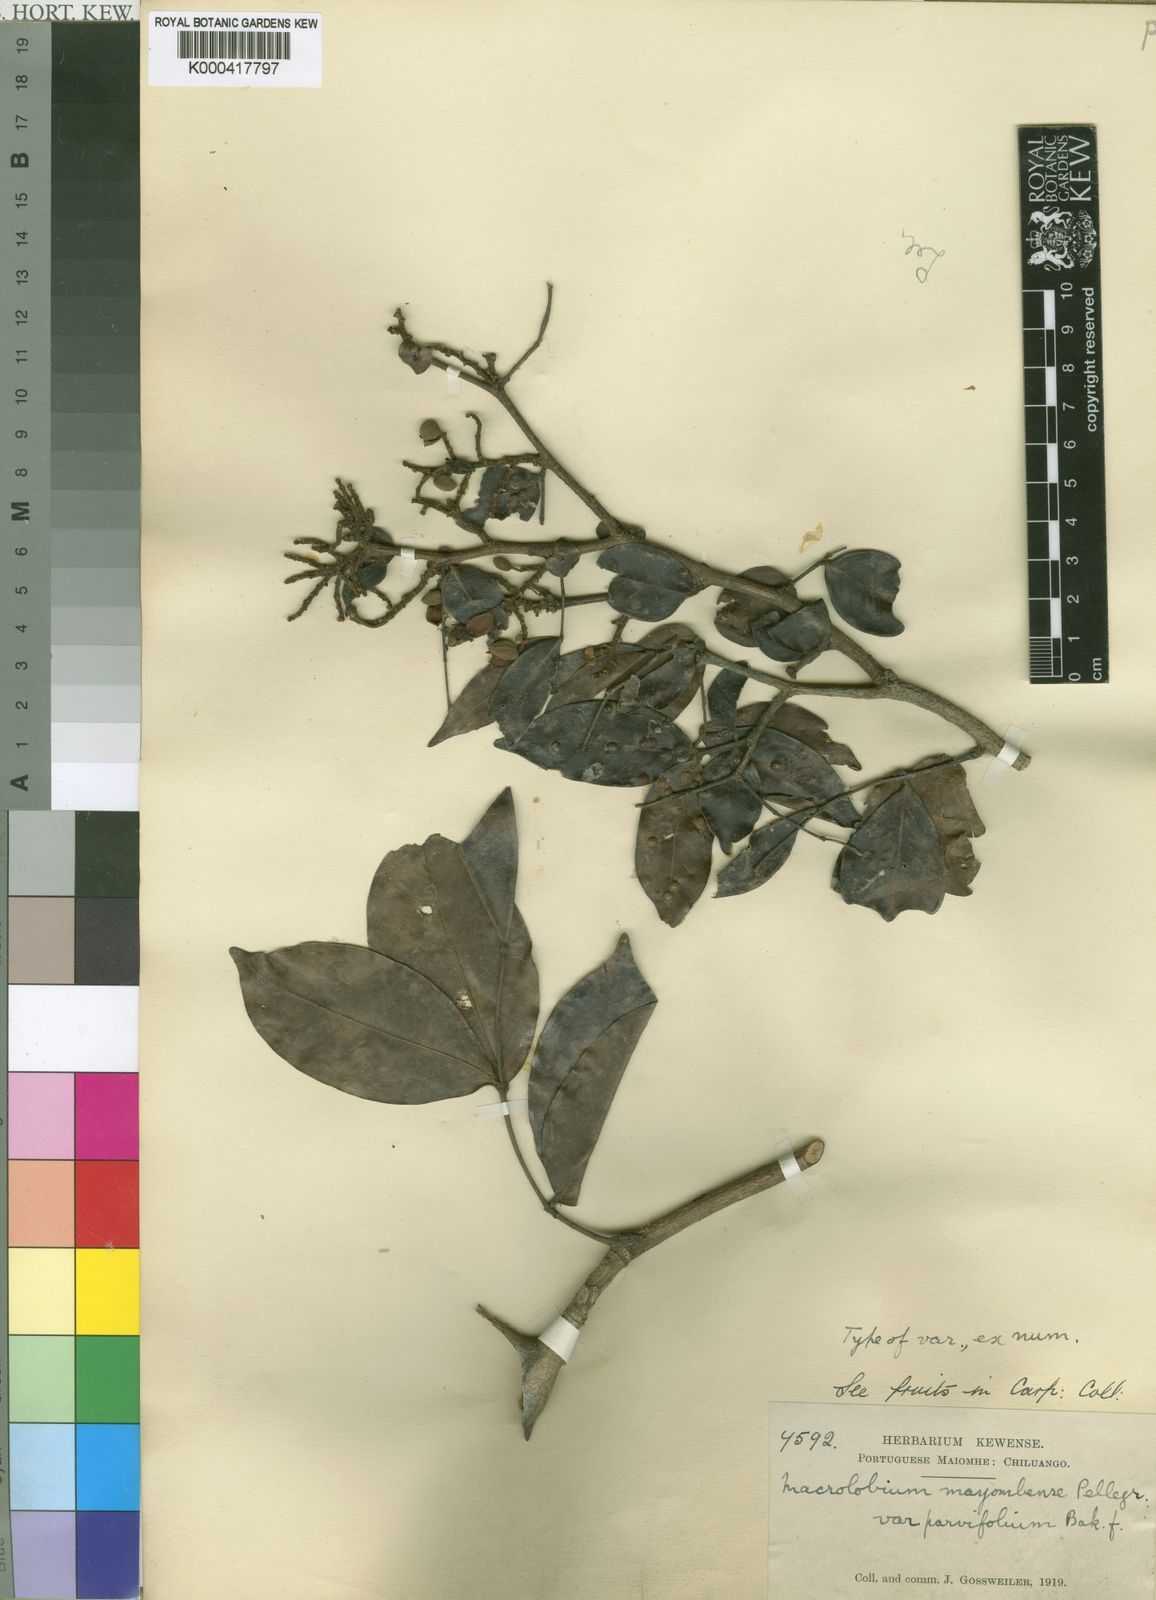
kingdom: Plantae
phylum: Tracheophyta
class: Magnoliopsida
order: Fabales
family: Fabaceae
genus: Gilbertiodendron
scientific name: Gilbertiodendron
